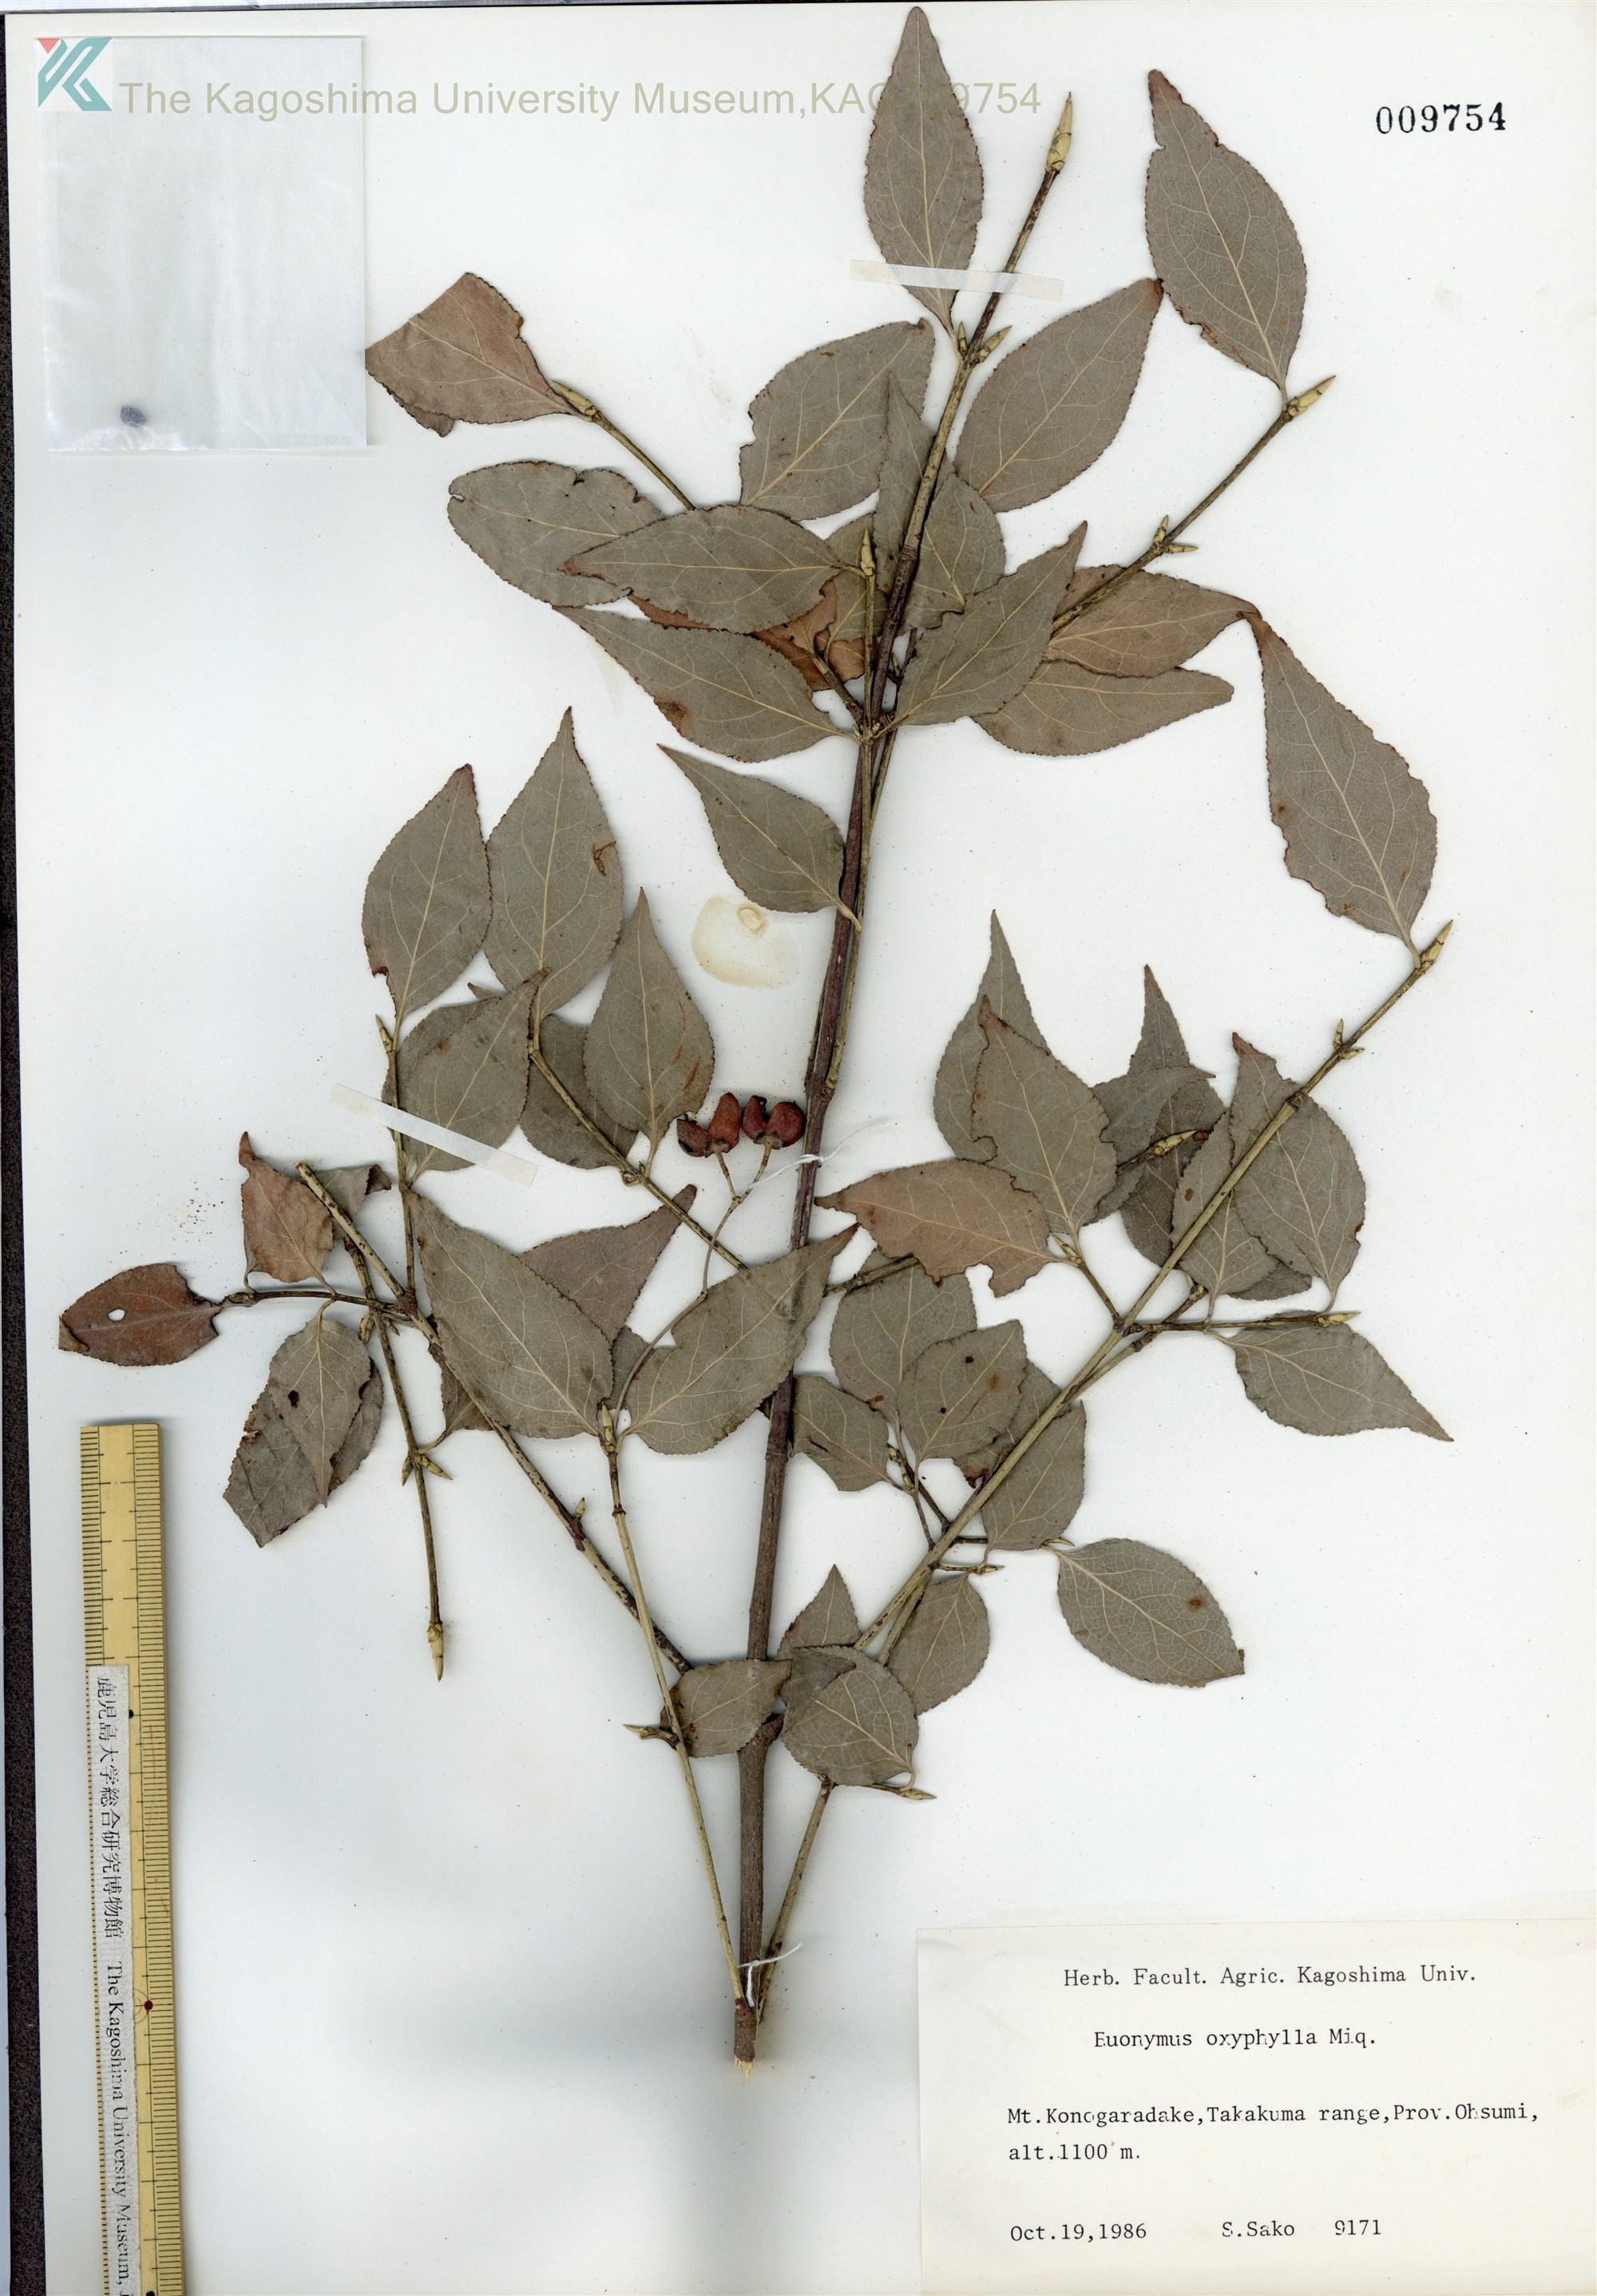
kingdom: Plantae
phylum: Tracheophyta
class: Magnoliopsida
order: Celastrales
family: Celastraceae
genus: Euonymus
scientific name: Euonymus oxyphyllus
